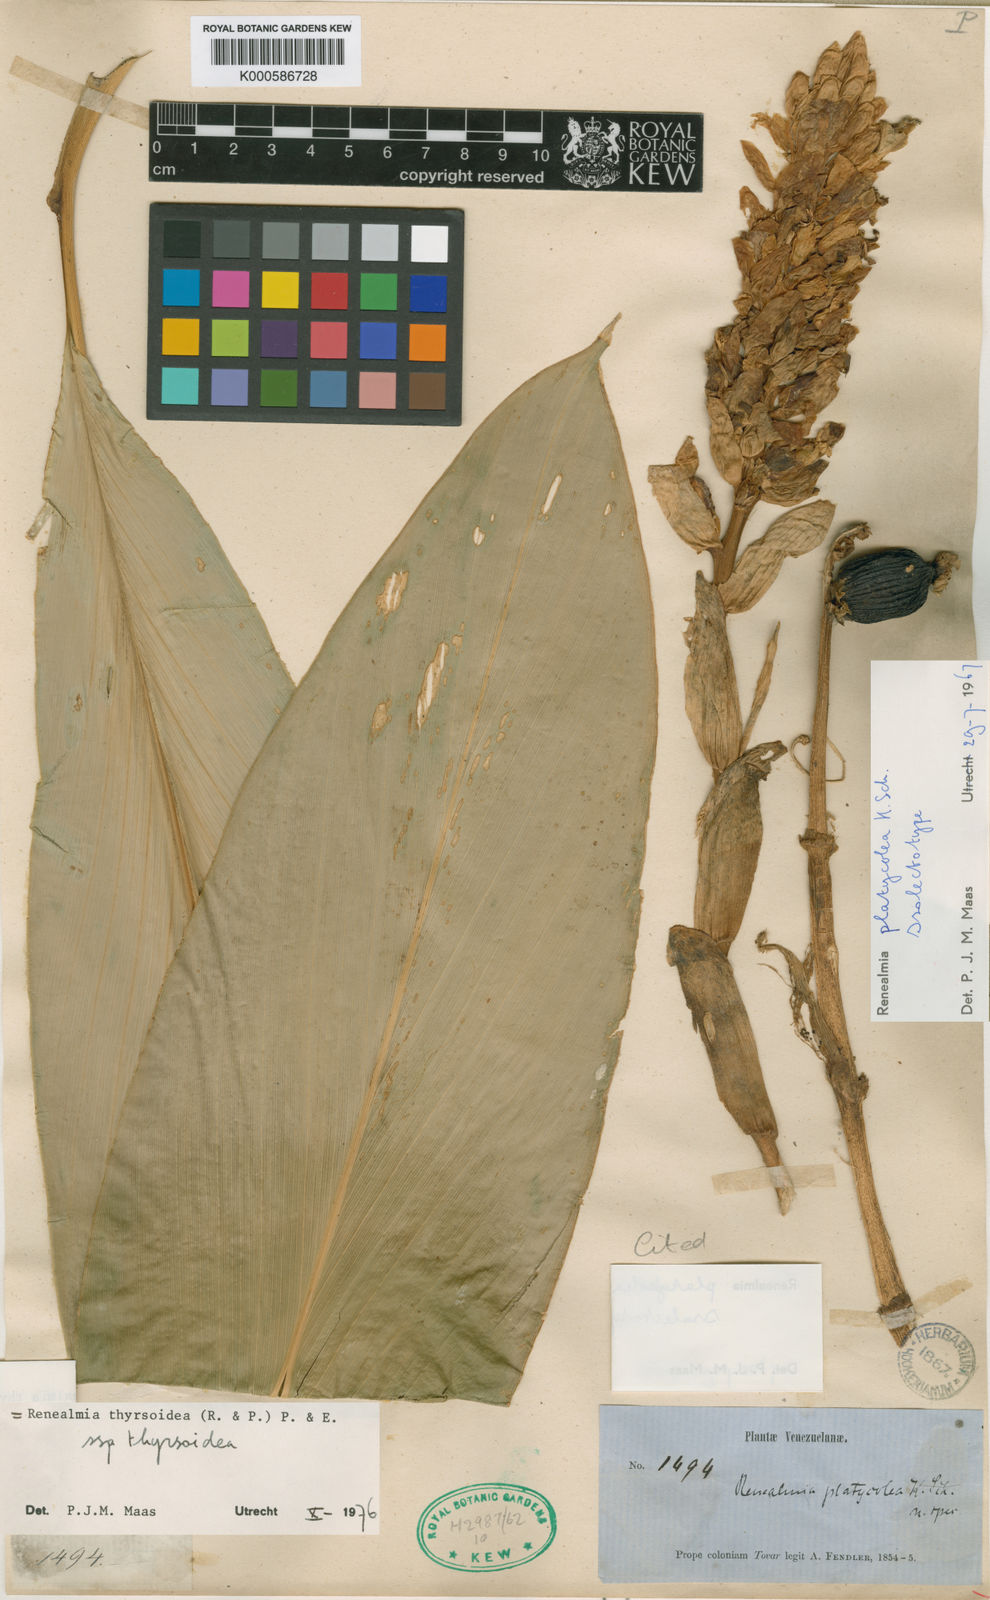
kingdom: Plantae
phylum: Tracheophyta
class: Liliopsida
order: Zingiberales
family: Zingiberaceae
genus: Renealmia
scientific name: Renealmia thyrsoidea
